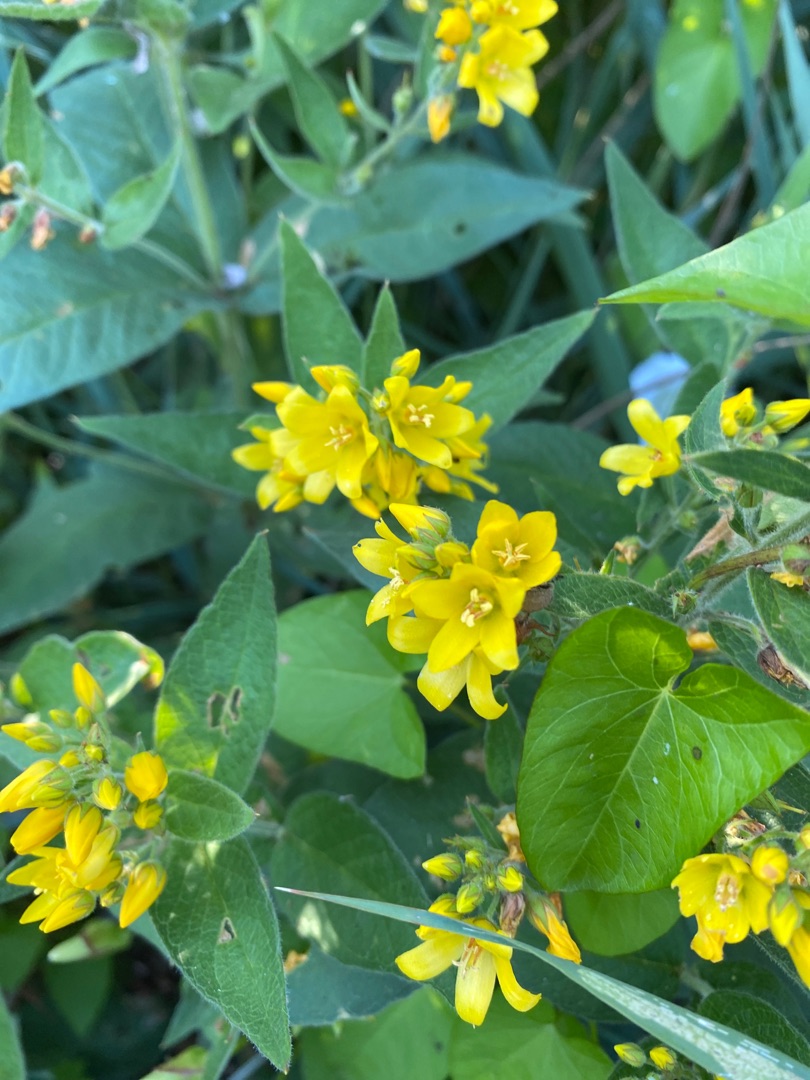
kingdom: Plantae
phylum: Tracheophyta
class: Magnoliopsida
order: Ericales
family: Primulaceae
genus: Lysimachia
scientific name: Lysimachia vulgaris
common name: Almindelig fredløs
